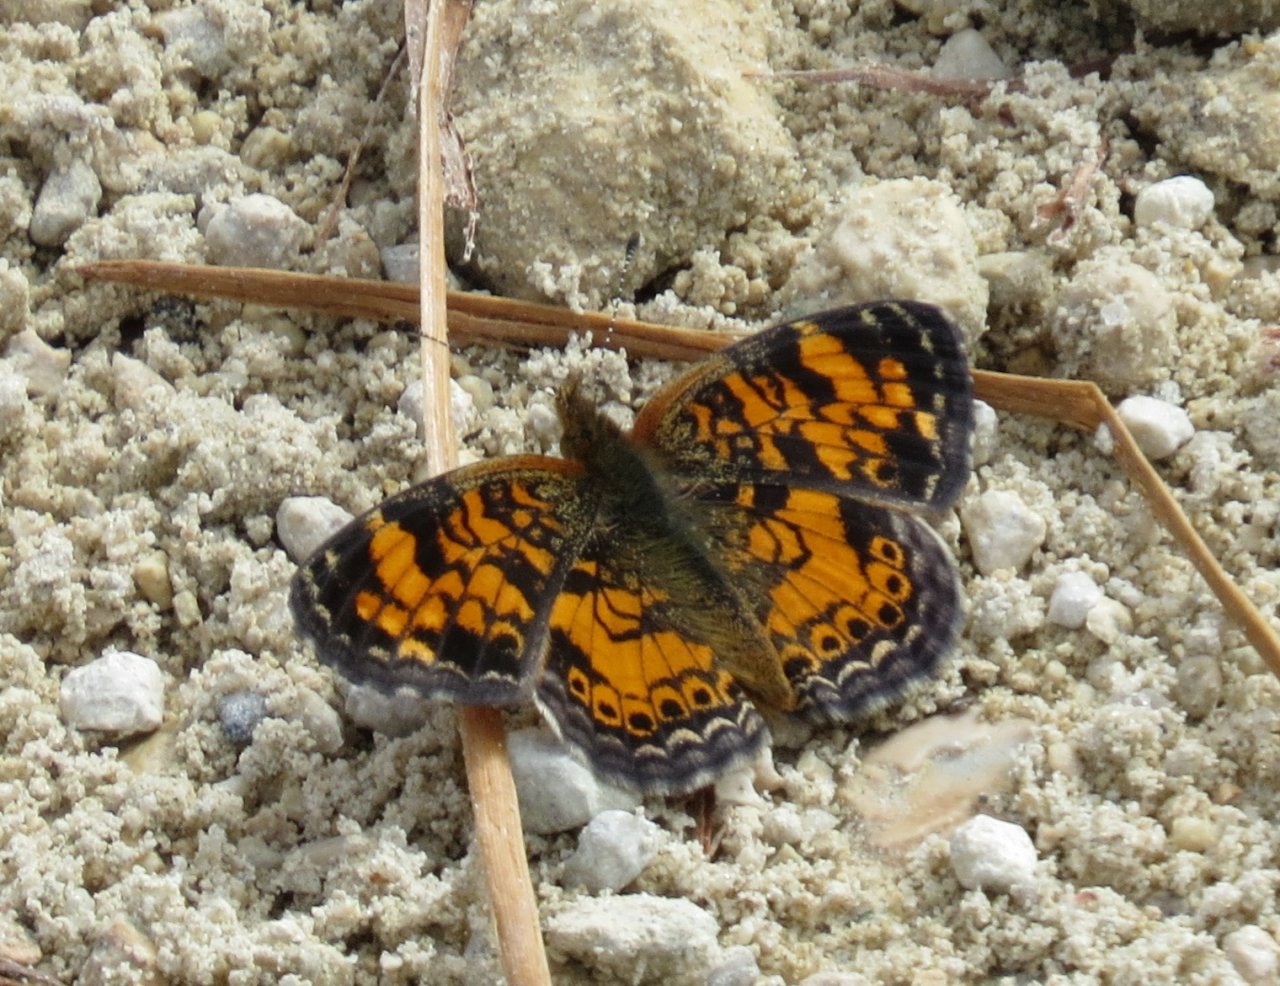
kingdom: Animalia
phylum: Arthropoda
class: Insecta
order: Lepidoptera
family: Nymphalidae
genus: Phyciodes
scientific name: Phyciodes tharos
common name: Pearl Crescent
